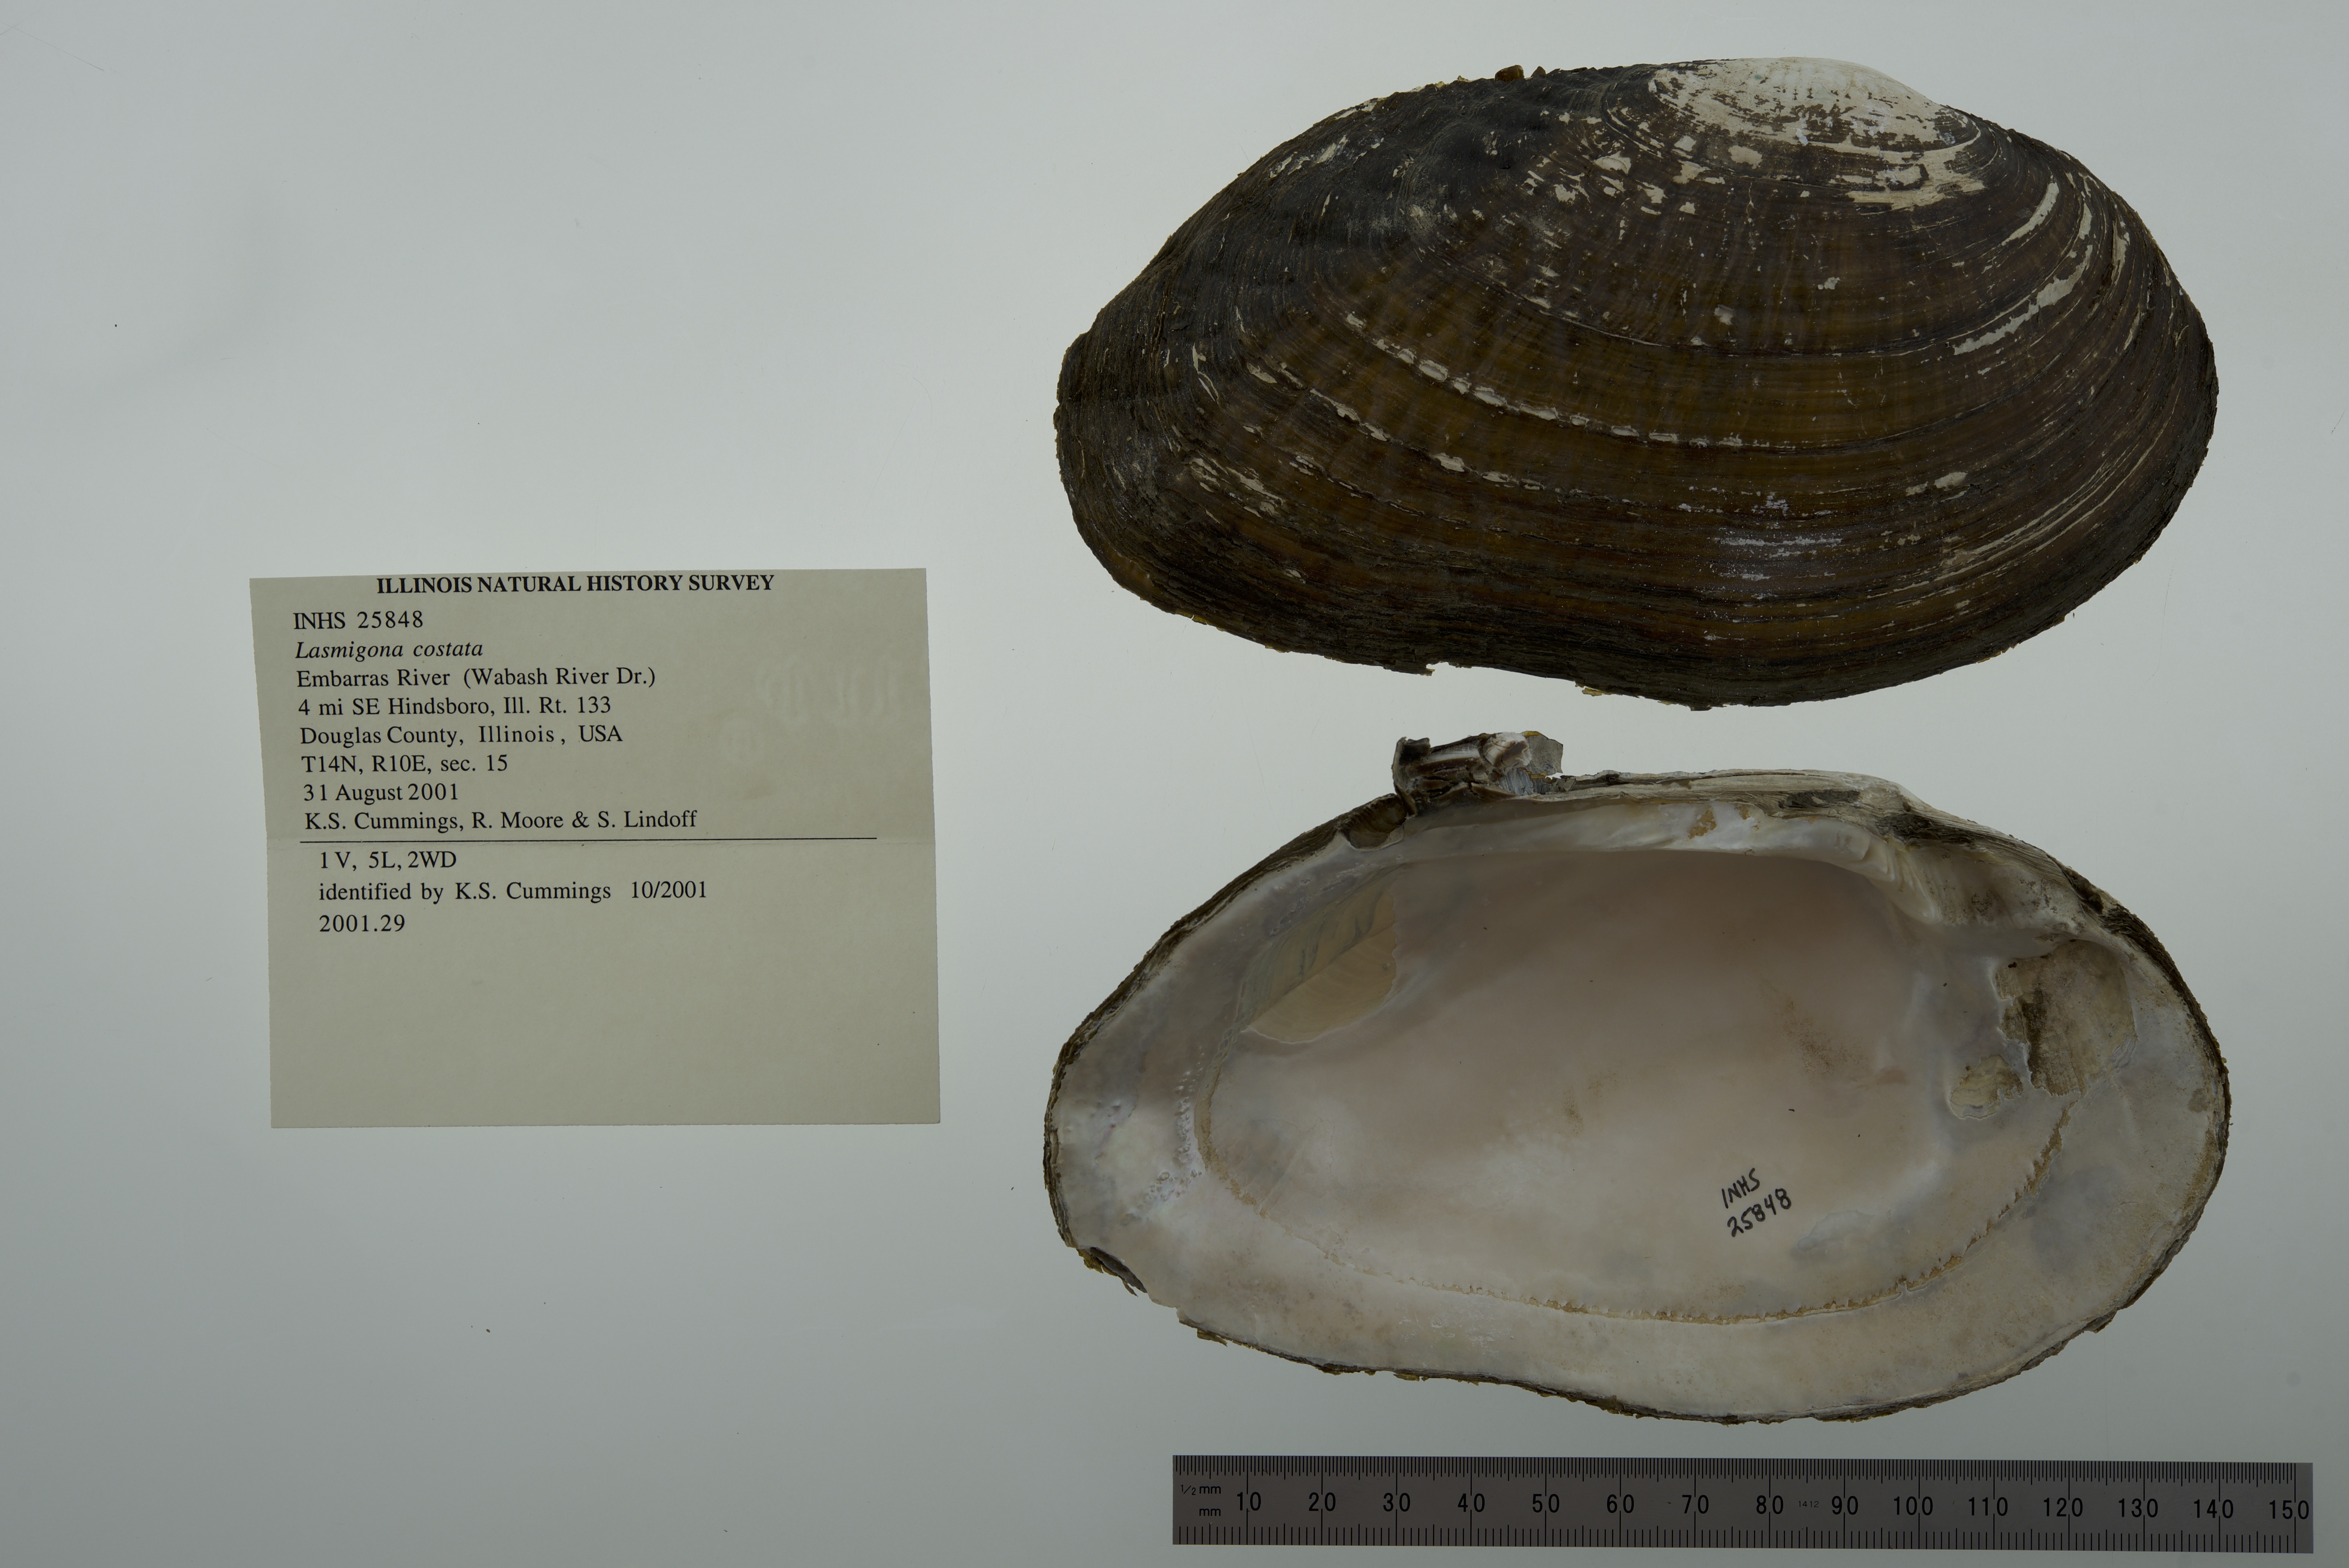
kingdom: Animalia
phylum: Mollusca
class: Bivalvia
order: Unionida
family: Unionidae
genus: Lasmigona
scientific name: Lasmigona costata
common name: Flutedshell
